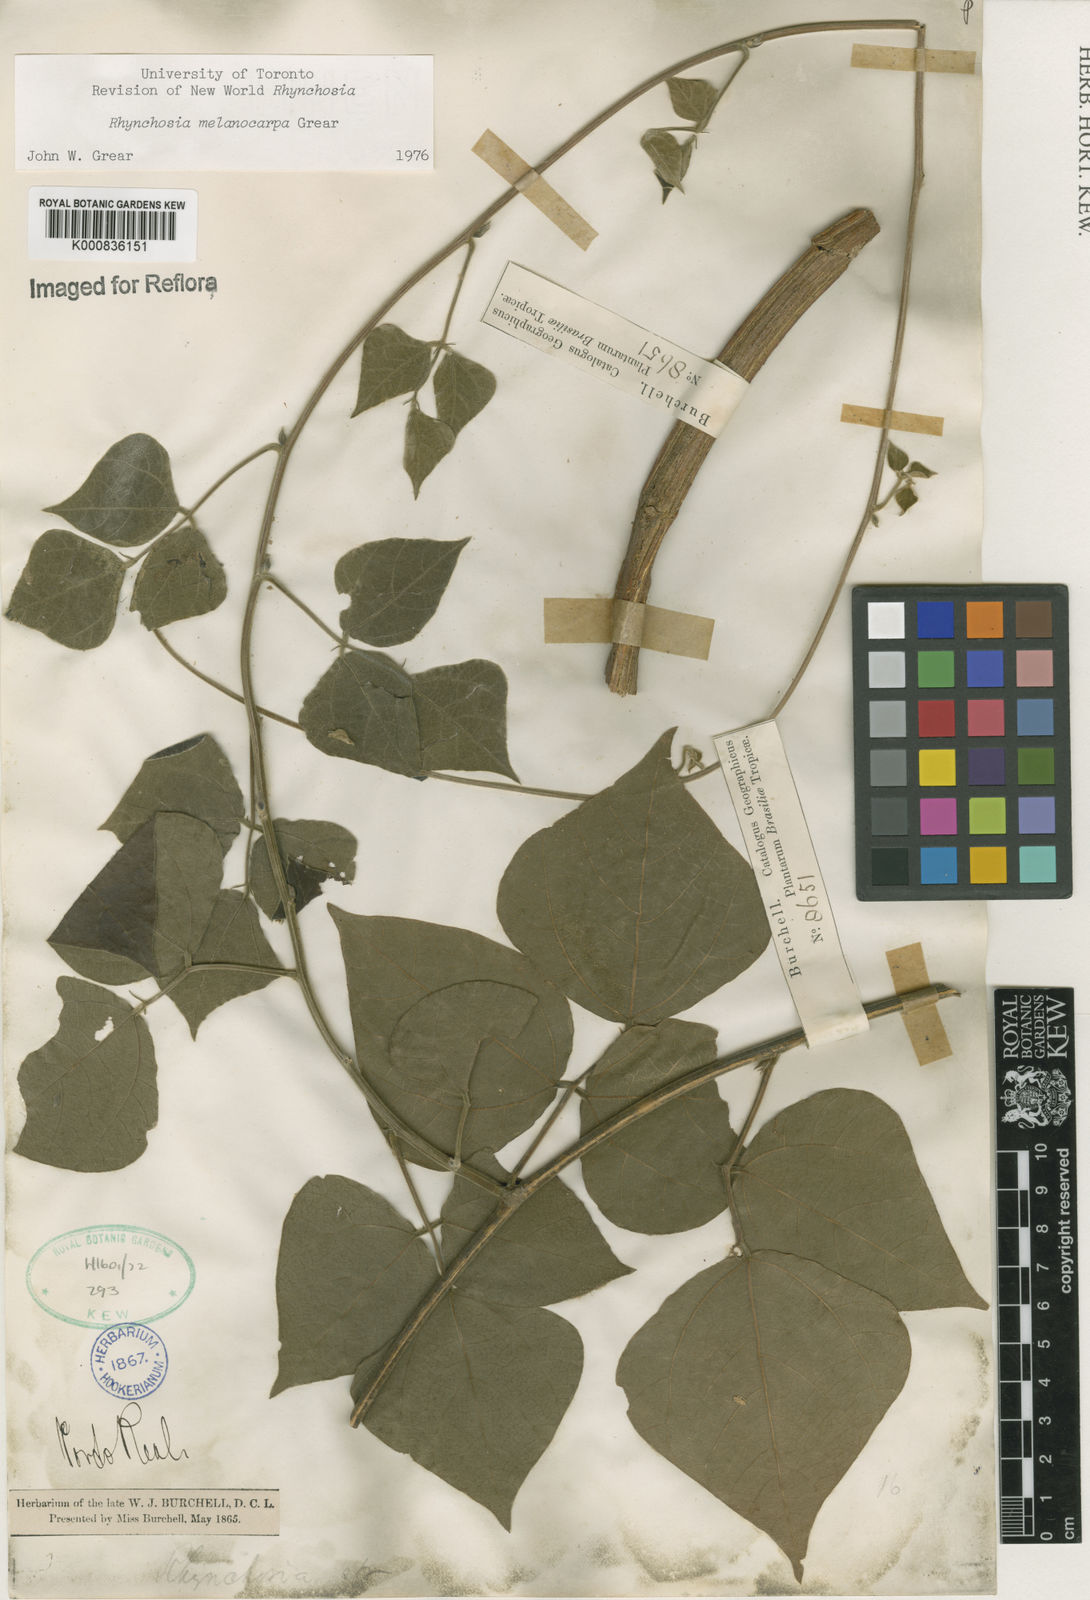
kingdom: Plantae
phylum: Tracheophyta
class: Magnoliopsida
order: Fabales
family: Fabaceae
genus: Rhynchosia
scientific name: Rhynchosia melanocarpa
